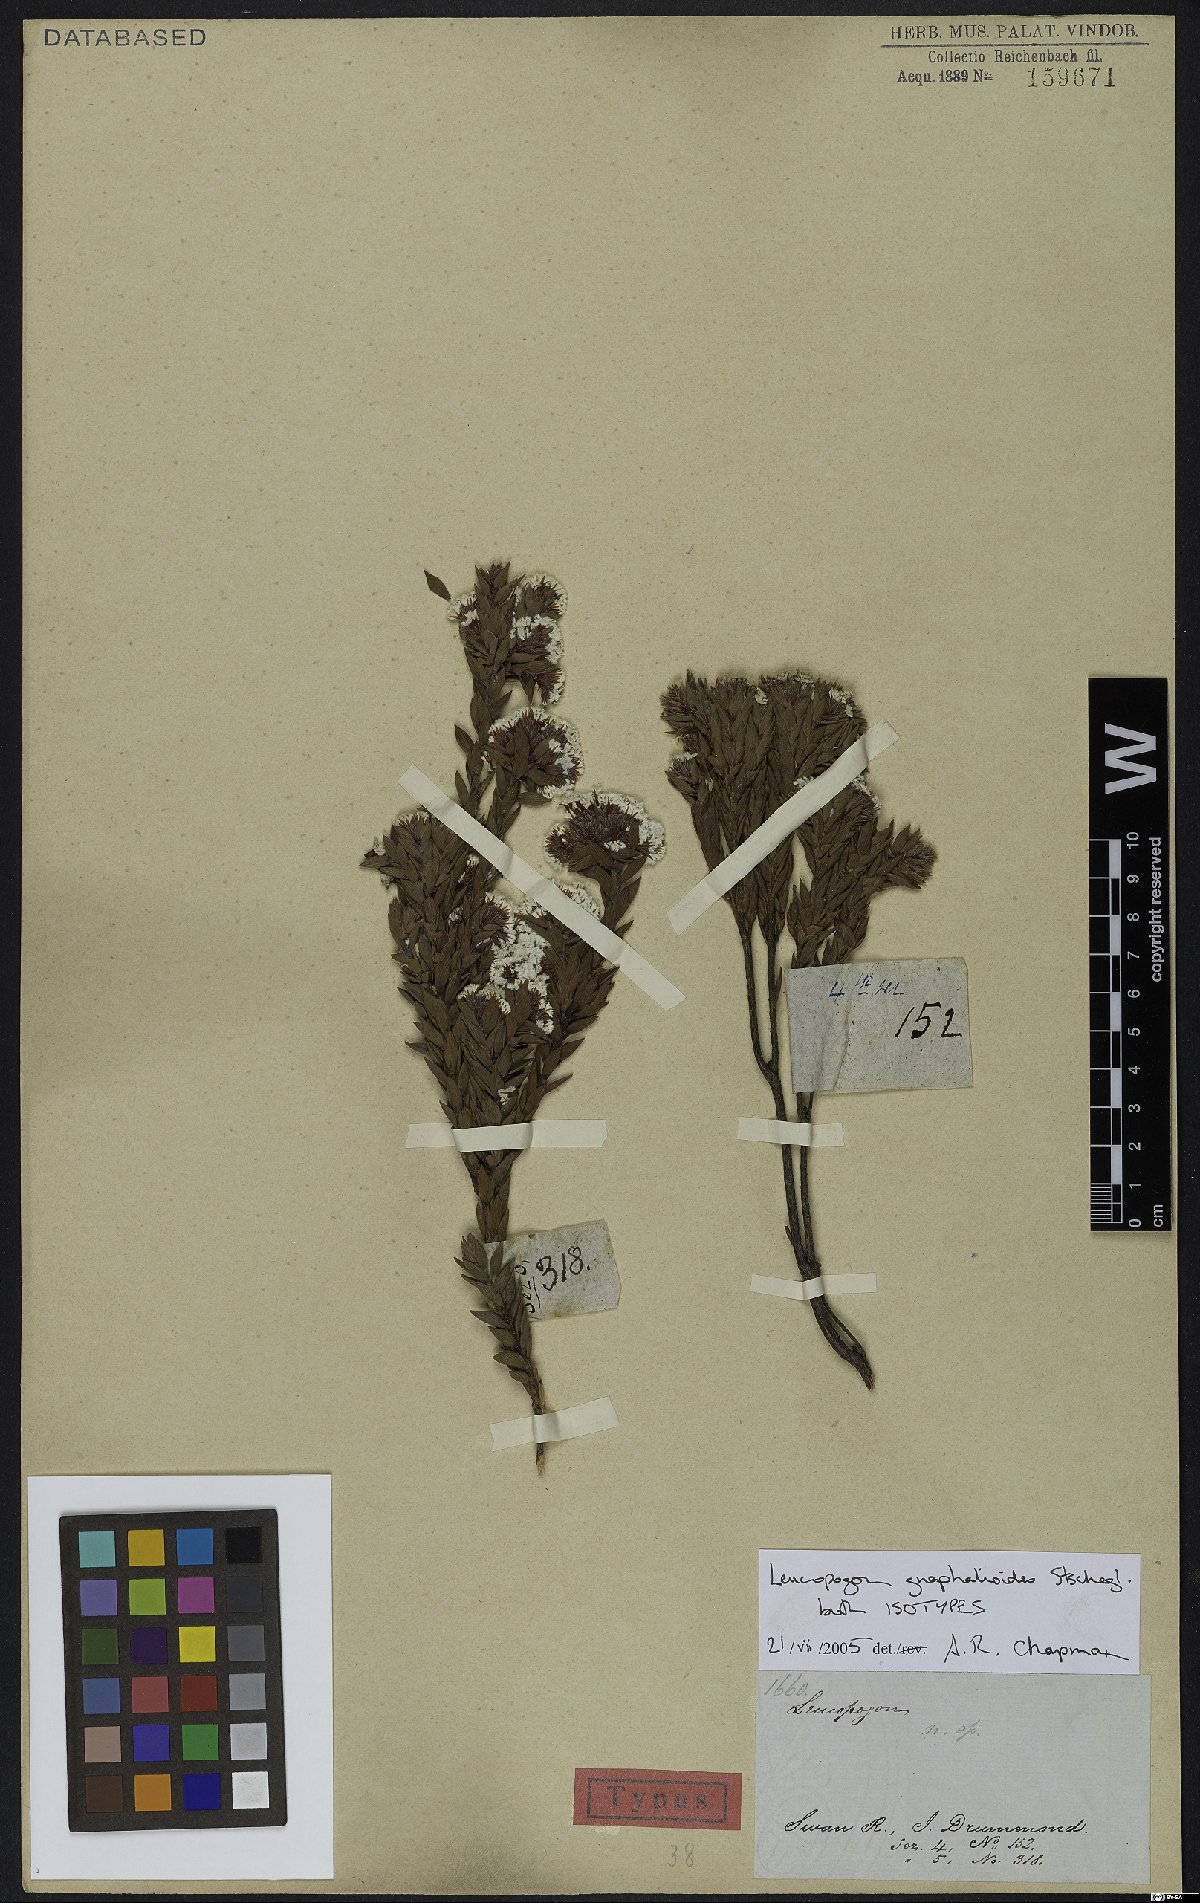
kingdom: Plantae
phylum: Tracheophyta
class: Magnoliopsida
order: Ericales
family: Ericaceae
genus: Leucopogon
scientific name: Leucopogon gnaphalioides
